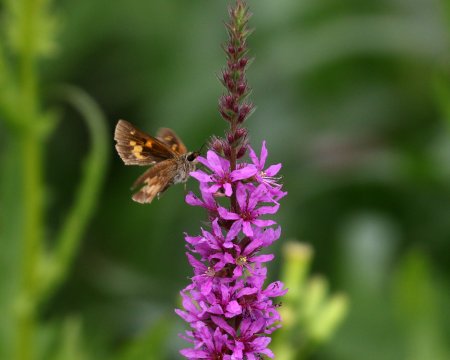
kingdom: Animalia
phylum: Arthropoda
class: Insecta
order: Lepidoptera
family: Hesperiidae
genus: Poanes
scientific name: Poanes viator
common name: Broad-winged Skipper
